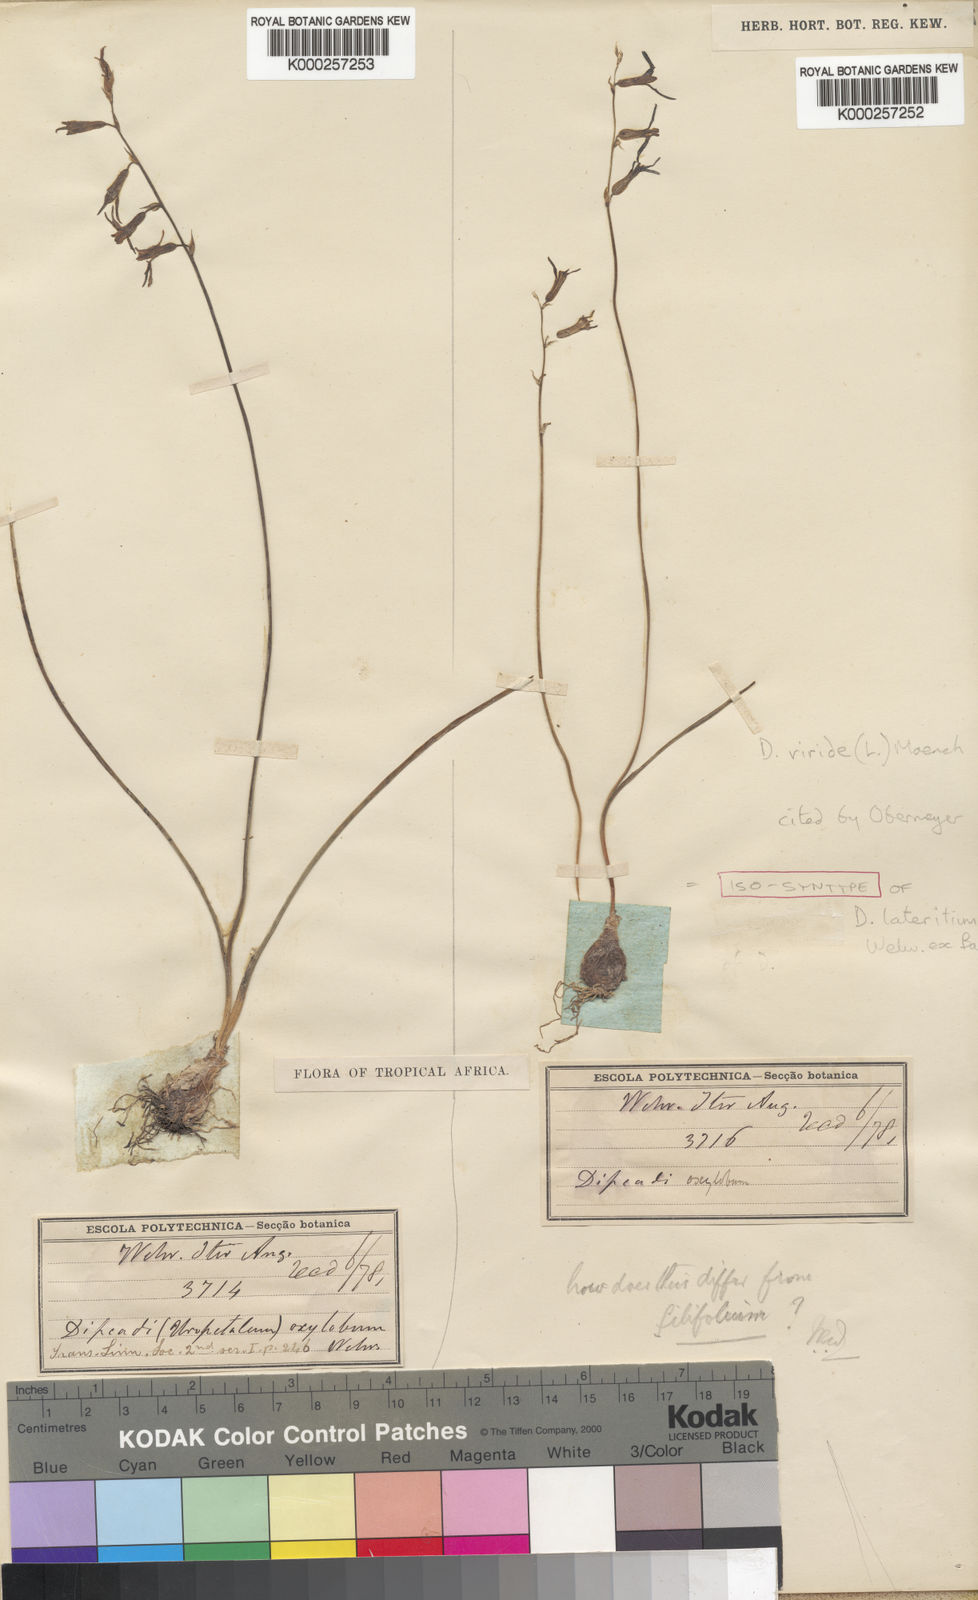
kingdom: Plantae
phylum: Tracheophyta
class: Liliopsida
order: Asparagales
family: Asparagaceae
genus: Dipcadi
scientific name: Dipcadi viride
